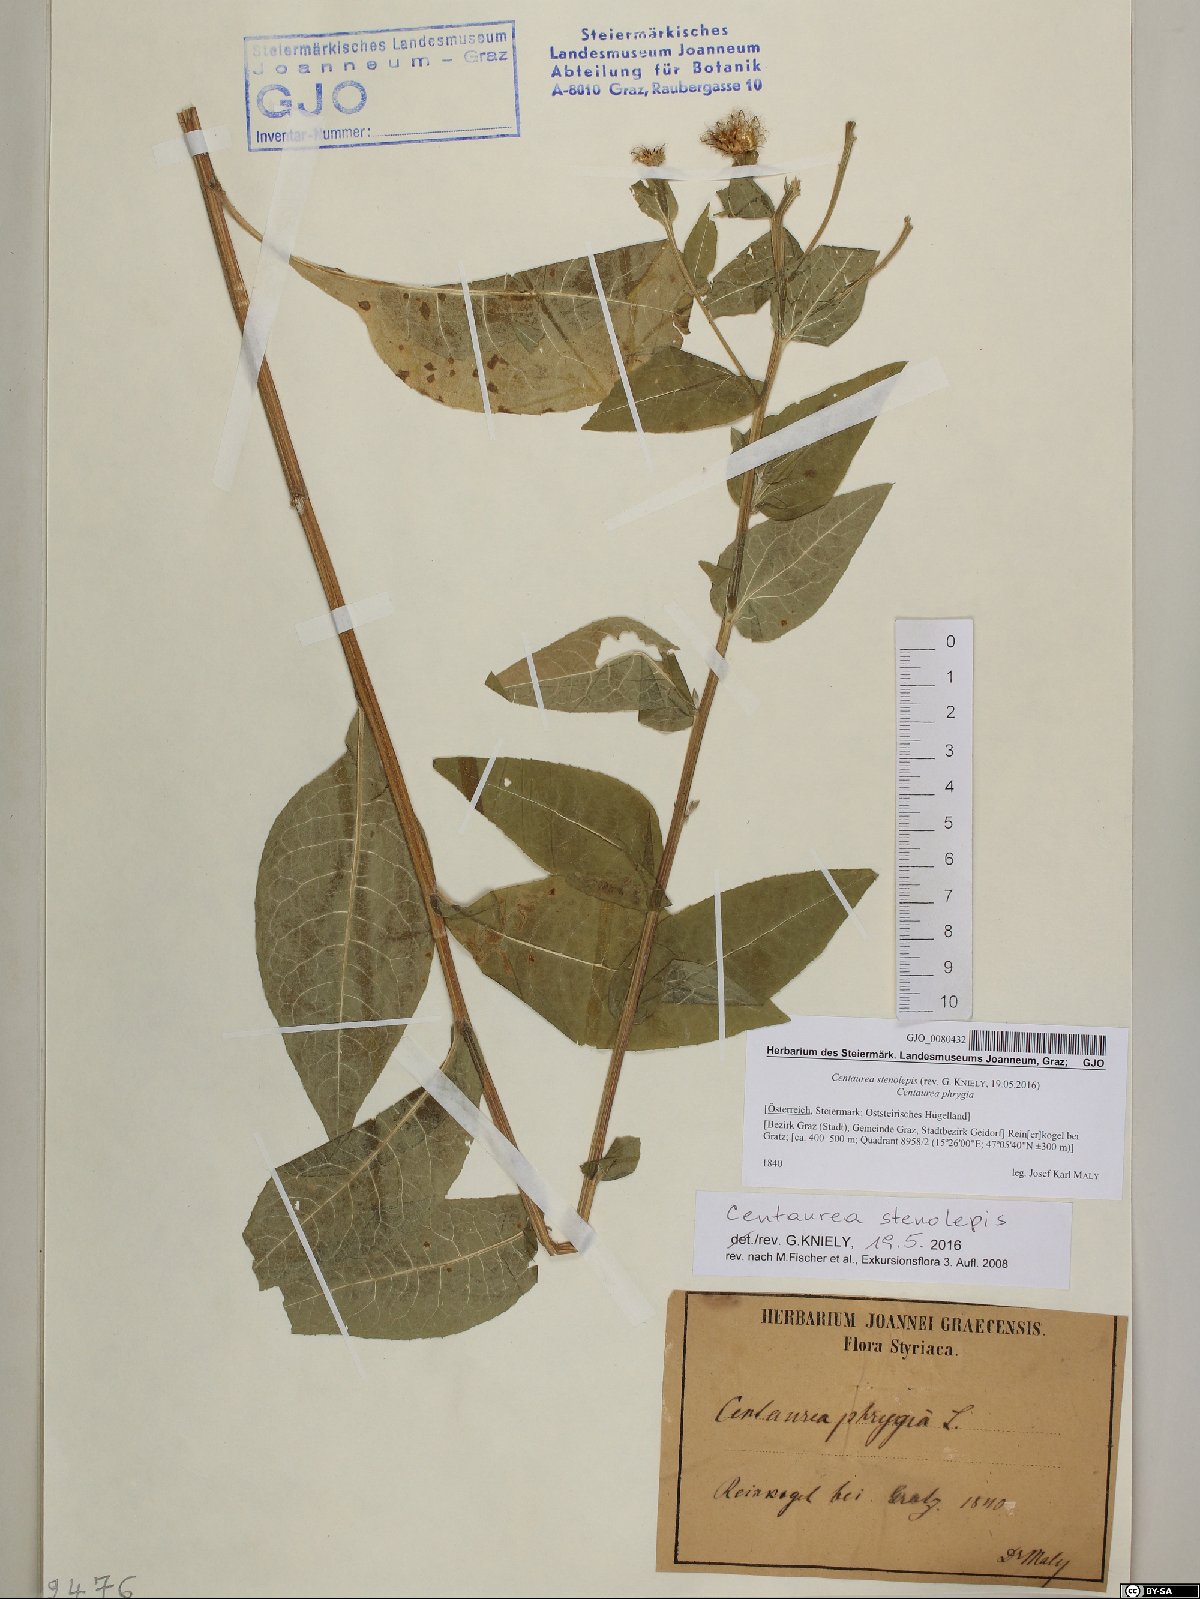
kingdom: Plantae
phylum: Tracheophyta
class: Magnoliopsida
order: Asterales
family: Asteraceae
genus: Centaurea
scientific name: Centaurea stenolepis
